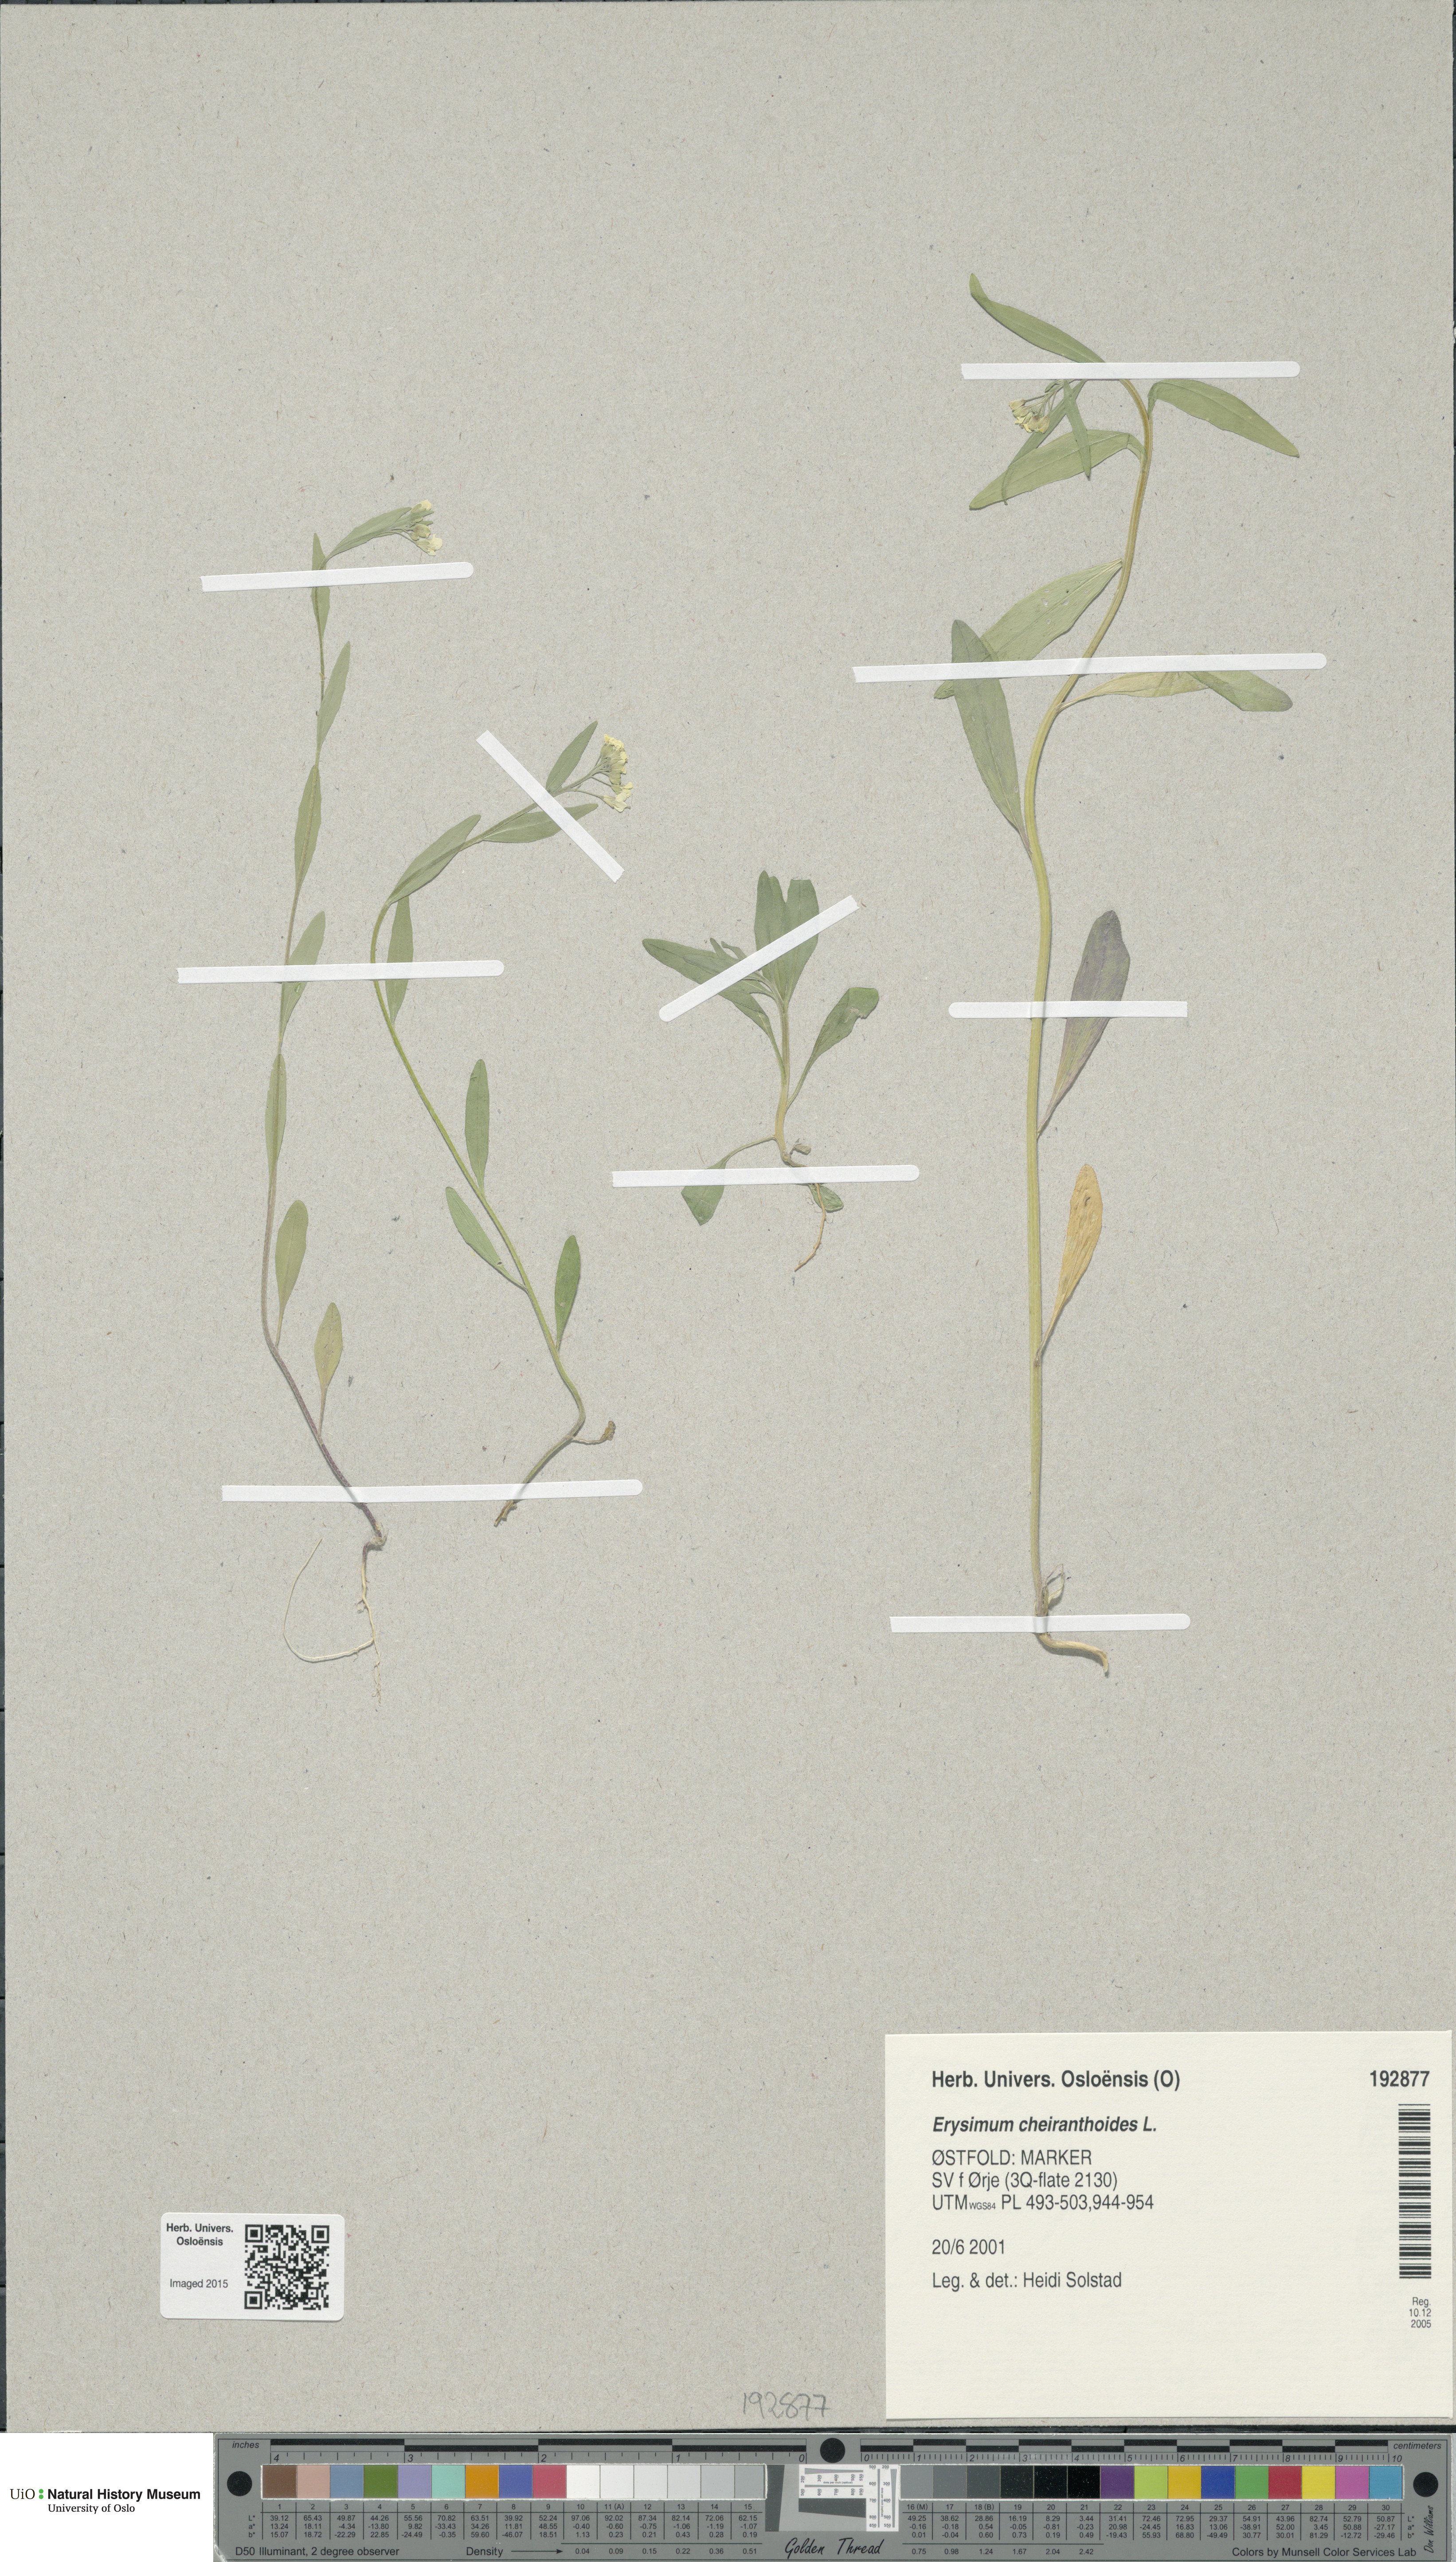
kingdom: Plantae
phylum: Tracheophyta
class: Magnoliopsida
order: Brassicales
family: Brassicaceae
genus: Erysimum
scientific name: Erysimum cheiranthoides
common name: Treacle mustard
